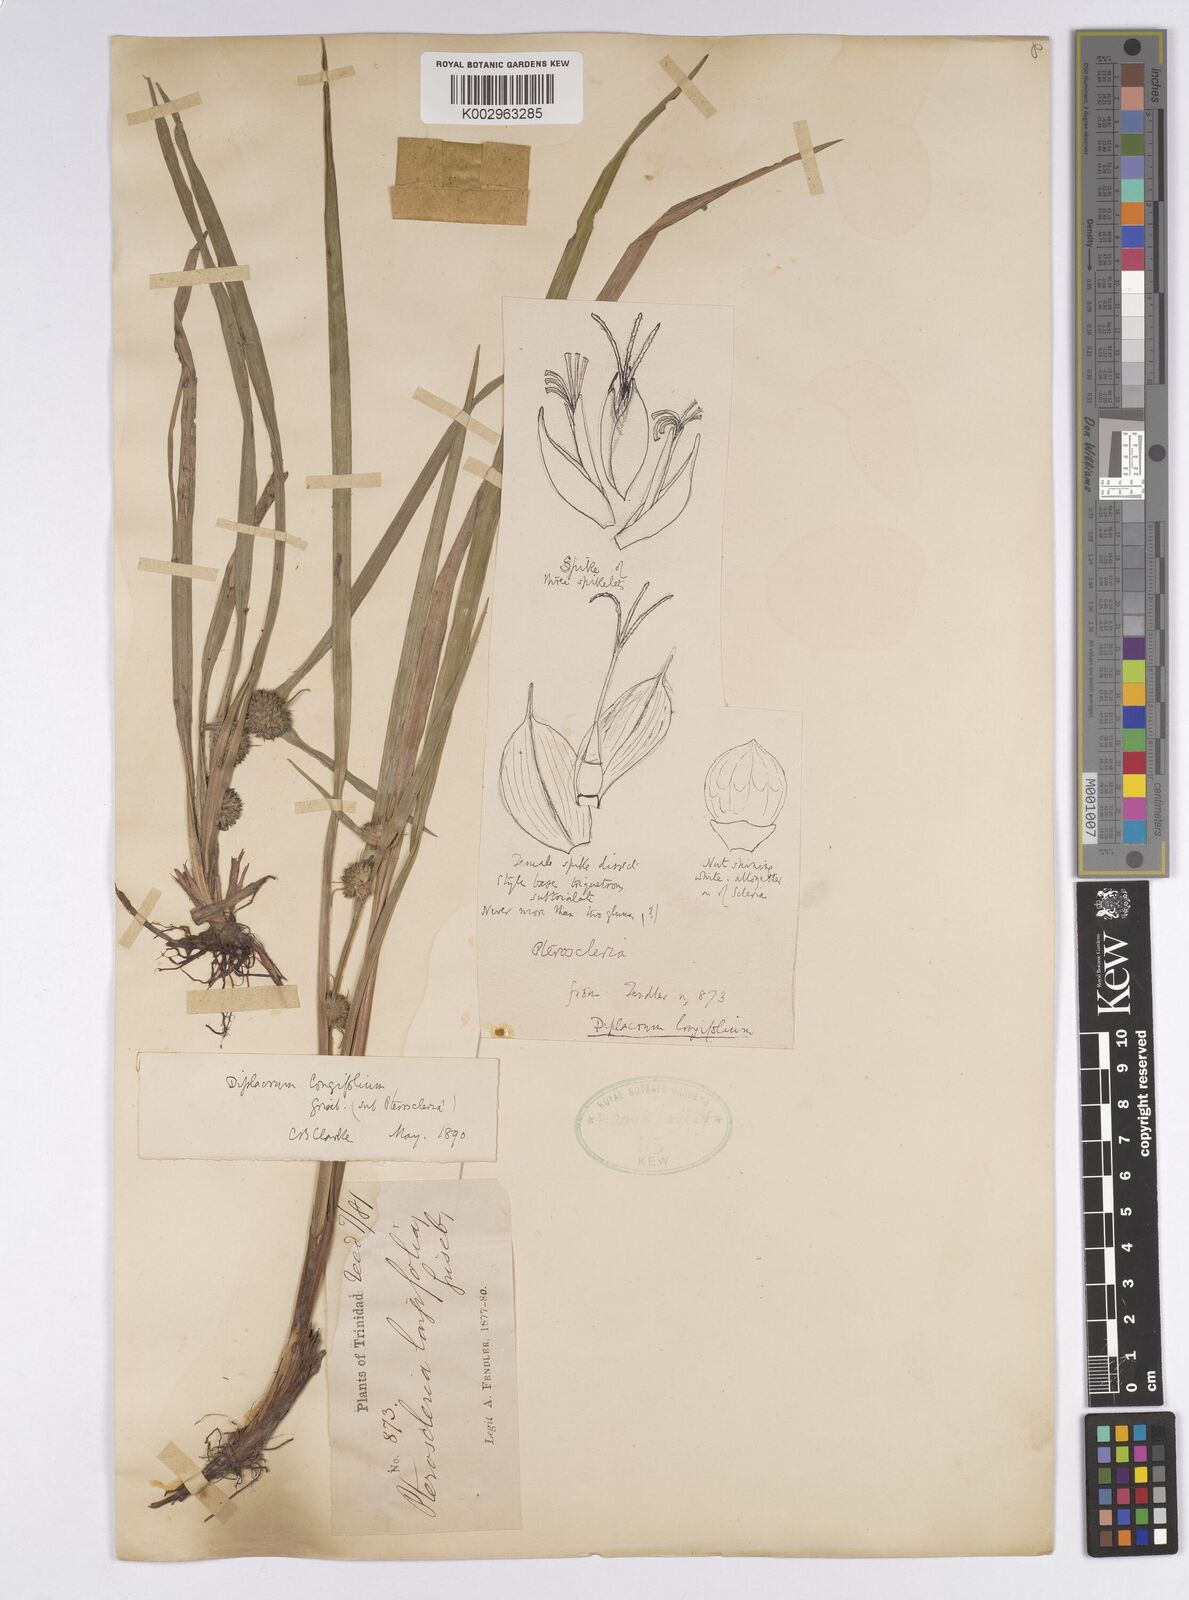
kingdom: Plantae
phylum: Tracheophyta
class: Liliopsida
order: Poales
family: Cyperaceae
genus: Diplacrum
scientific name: Diplacrum capitatum
